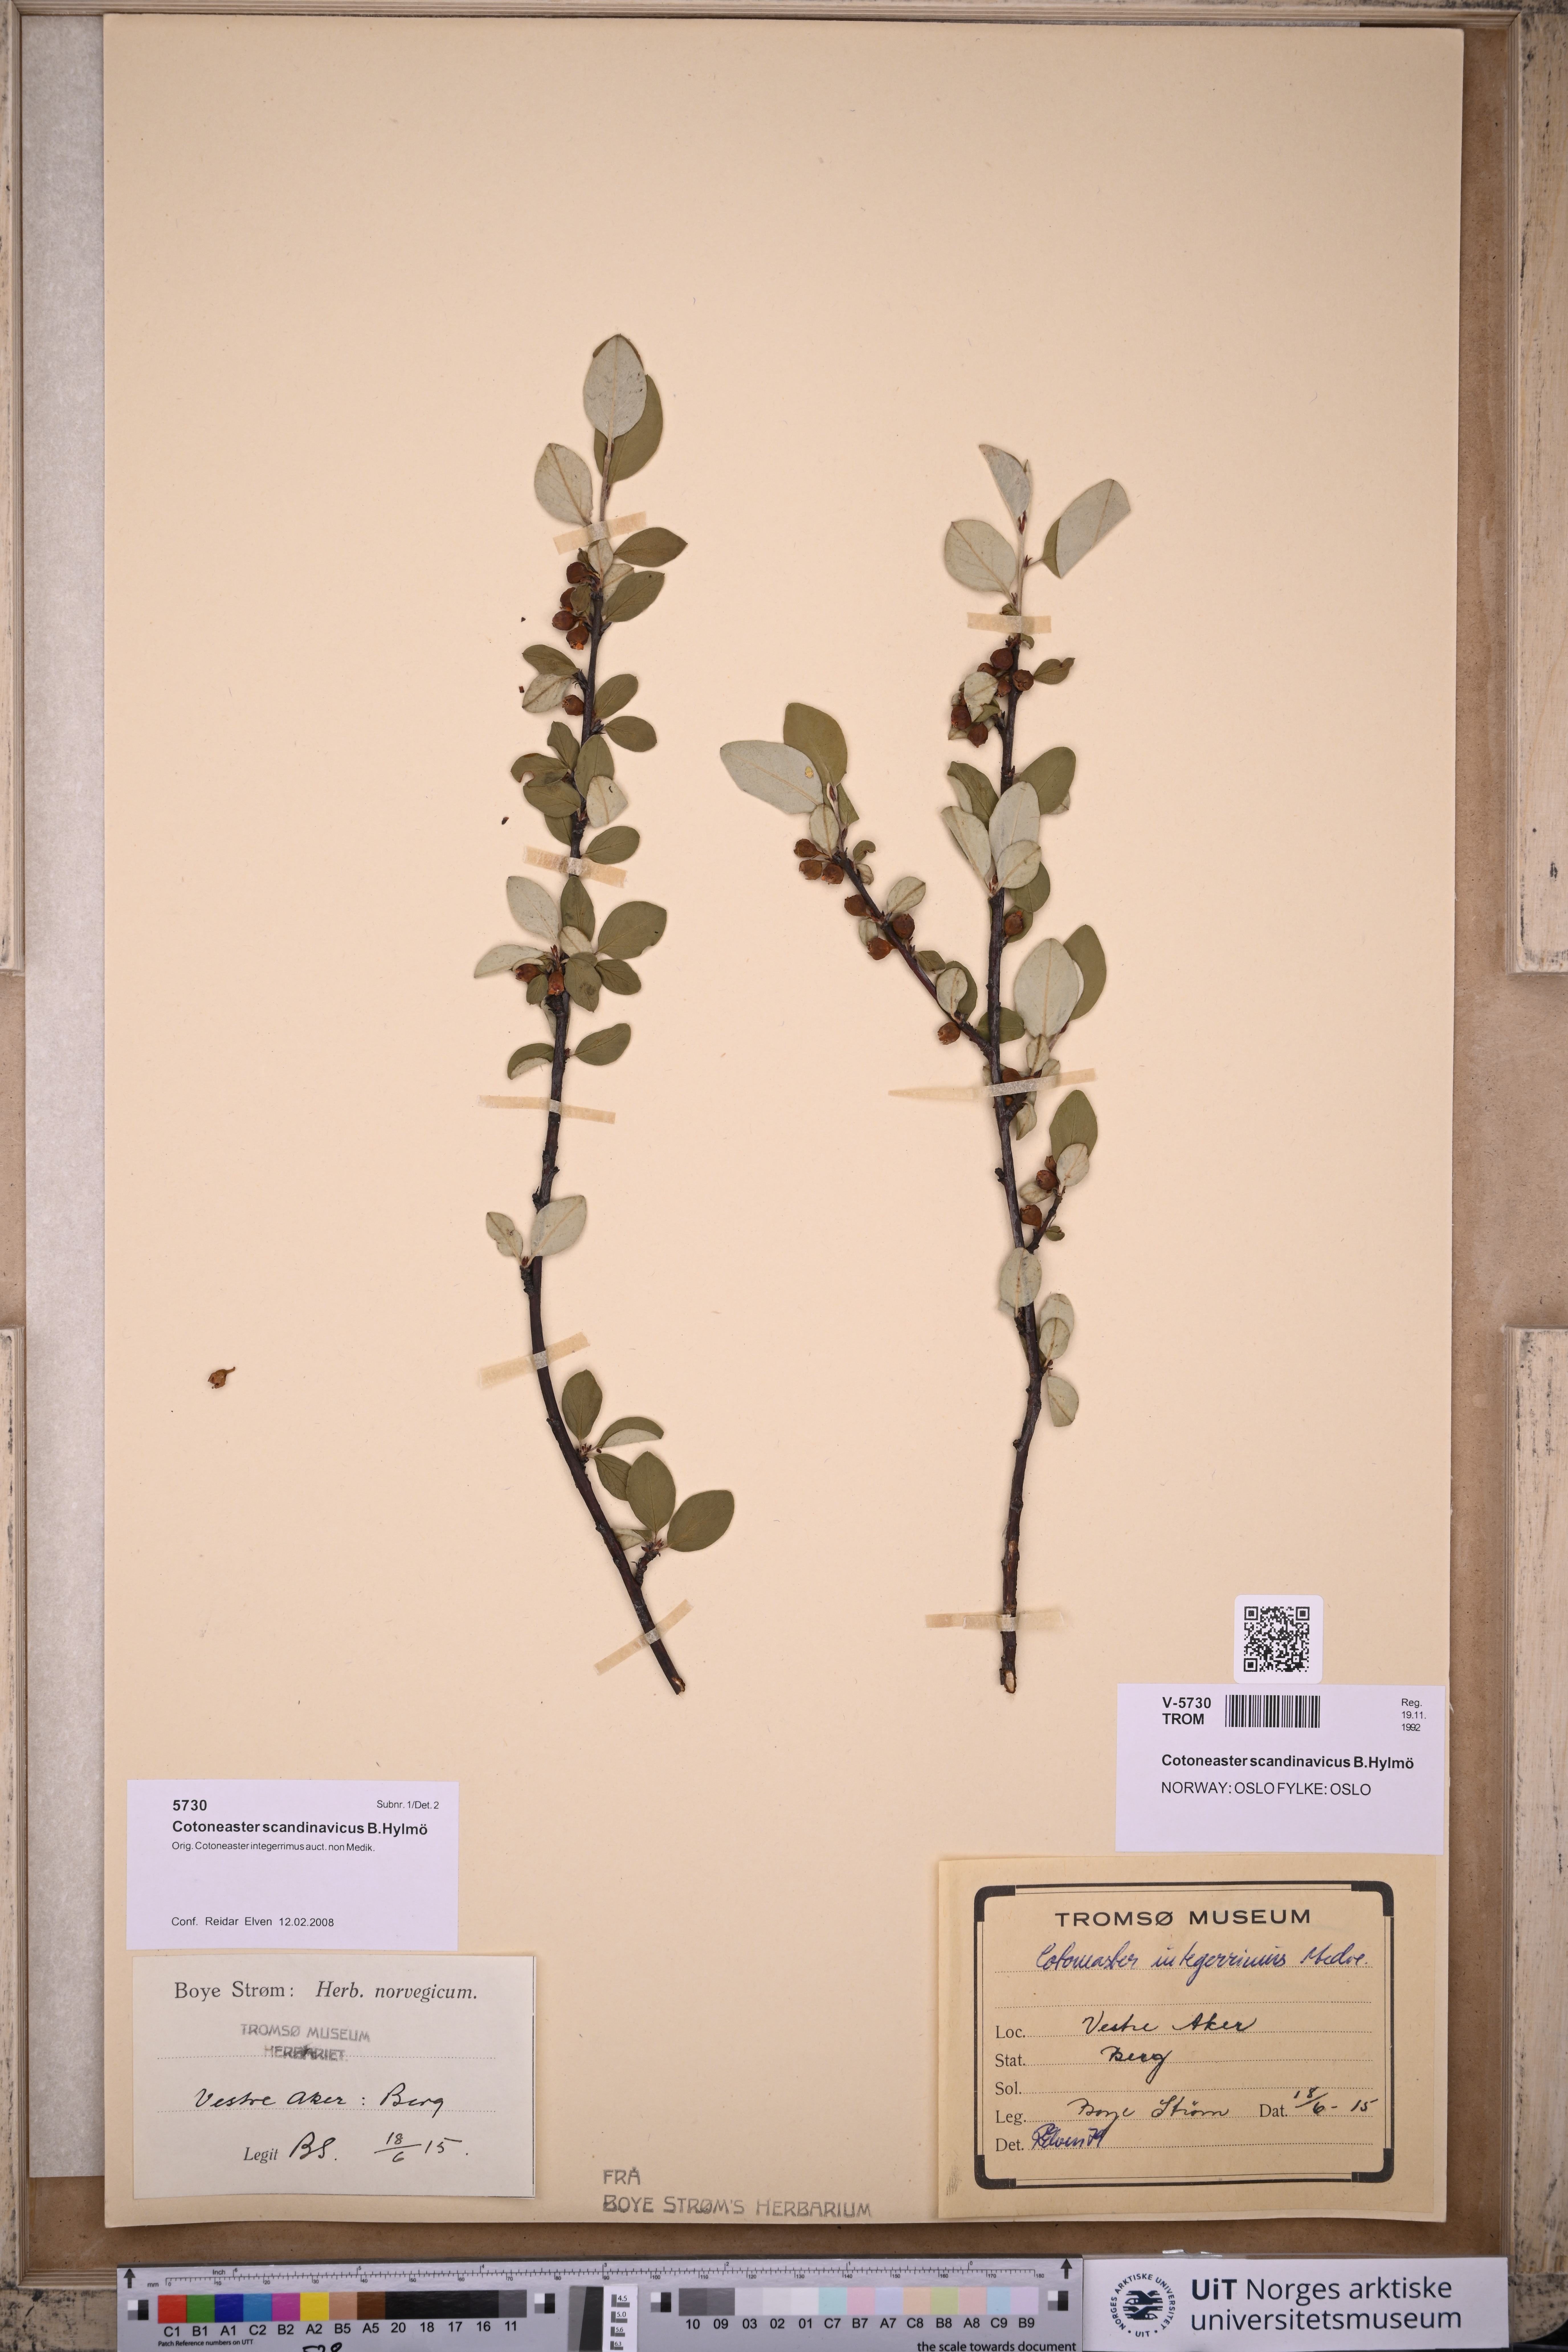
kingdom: Plantae
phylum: Tracheophyta
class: Magnoliopsida
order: Rosales
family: Rosaceae
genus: Cotoneaster
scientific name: Cotoneaster integerrimus
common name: Wild cotoneaster
